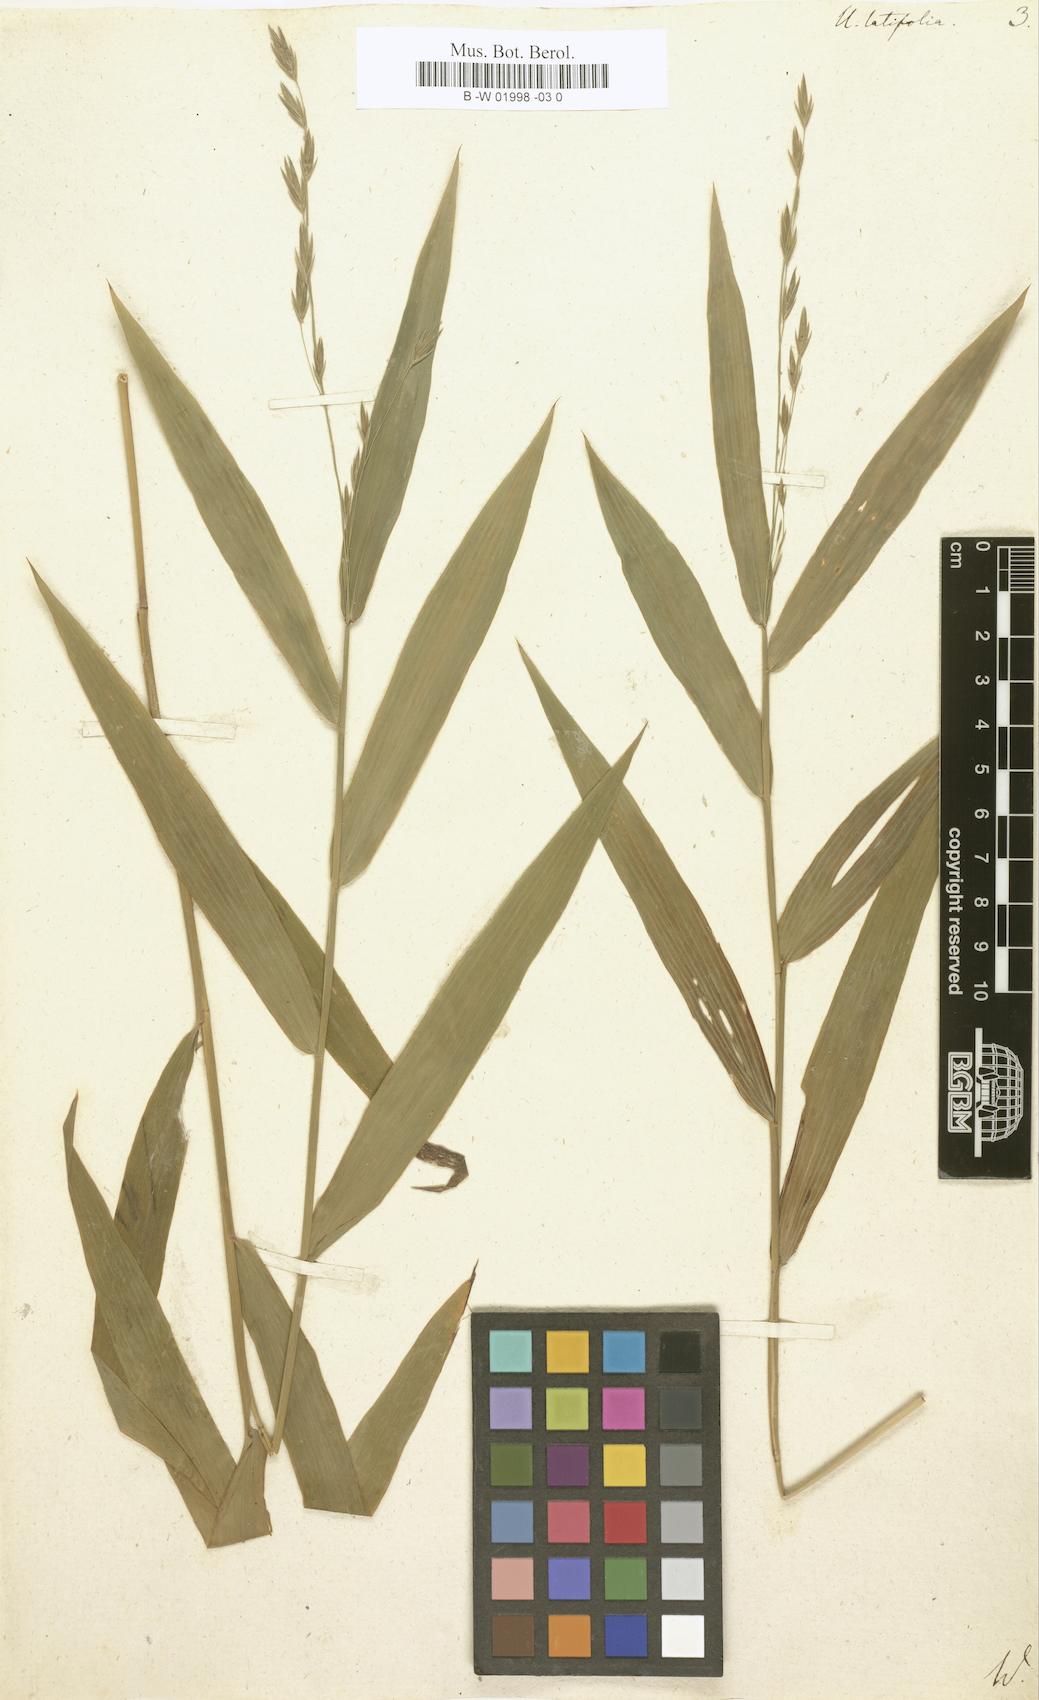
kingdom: Plantae
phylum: Tracheophyta
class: Liliopsida
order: Poales
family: Poaceae
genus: Chasmanthium
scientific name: Chasmanthium latifolium
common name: Broad-leaved chasmanthium
